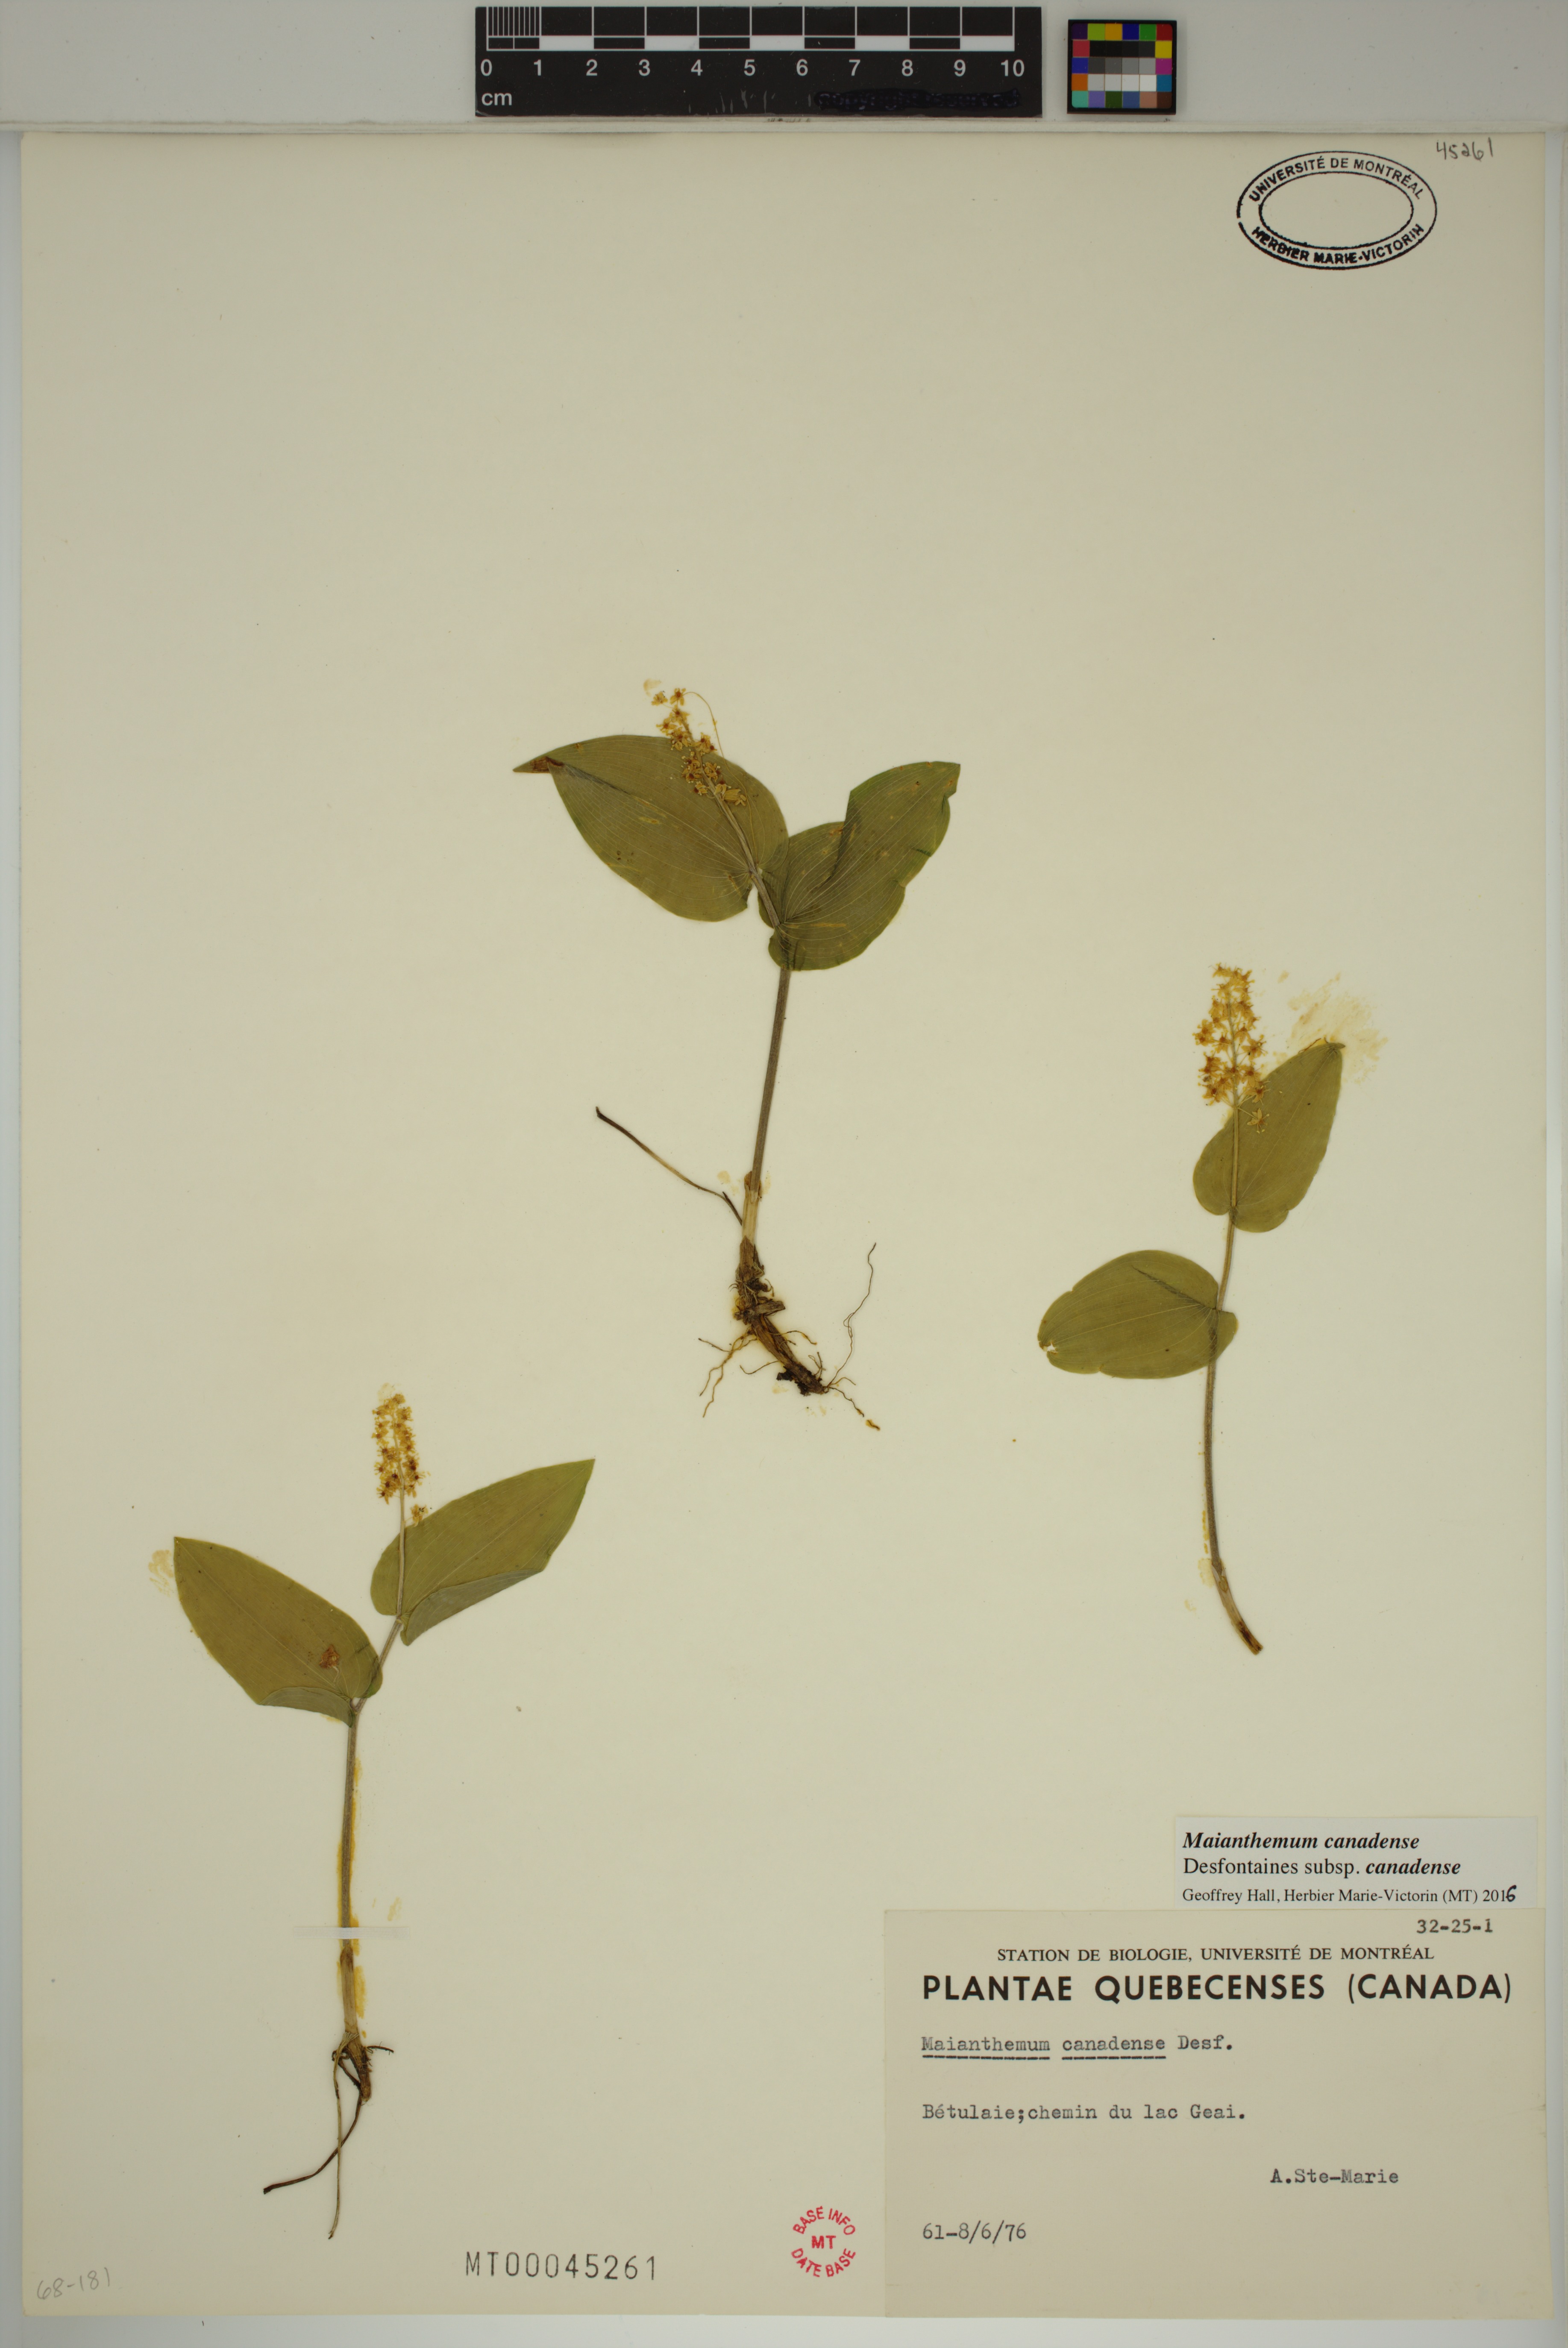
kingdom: Plantae
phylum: Tracheophyta
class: Liliopsida
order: Asparagales
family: Asparagaceae
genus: Maianthemum
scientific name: Maianthemum canadense
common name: False lily-of-the-valley
